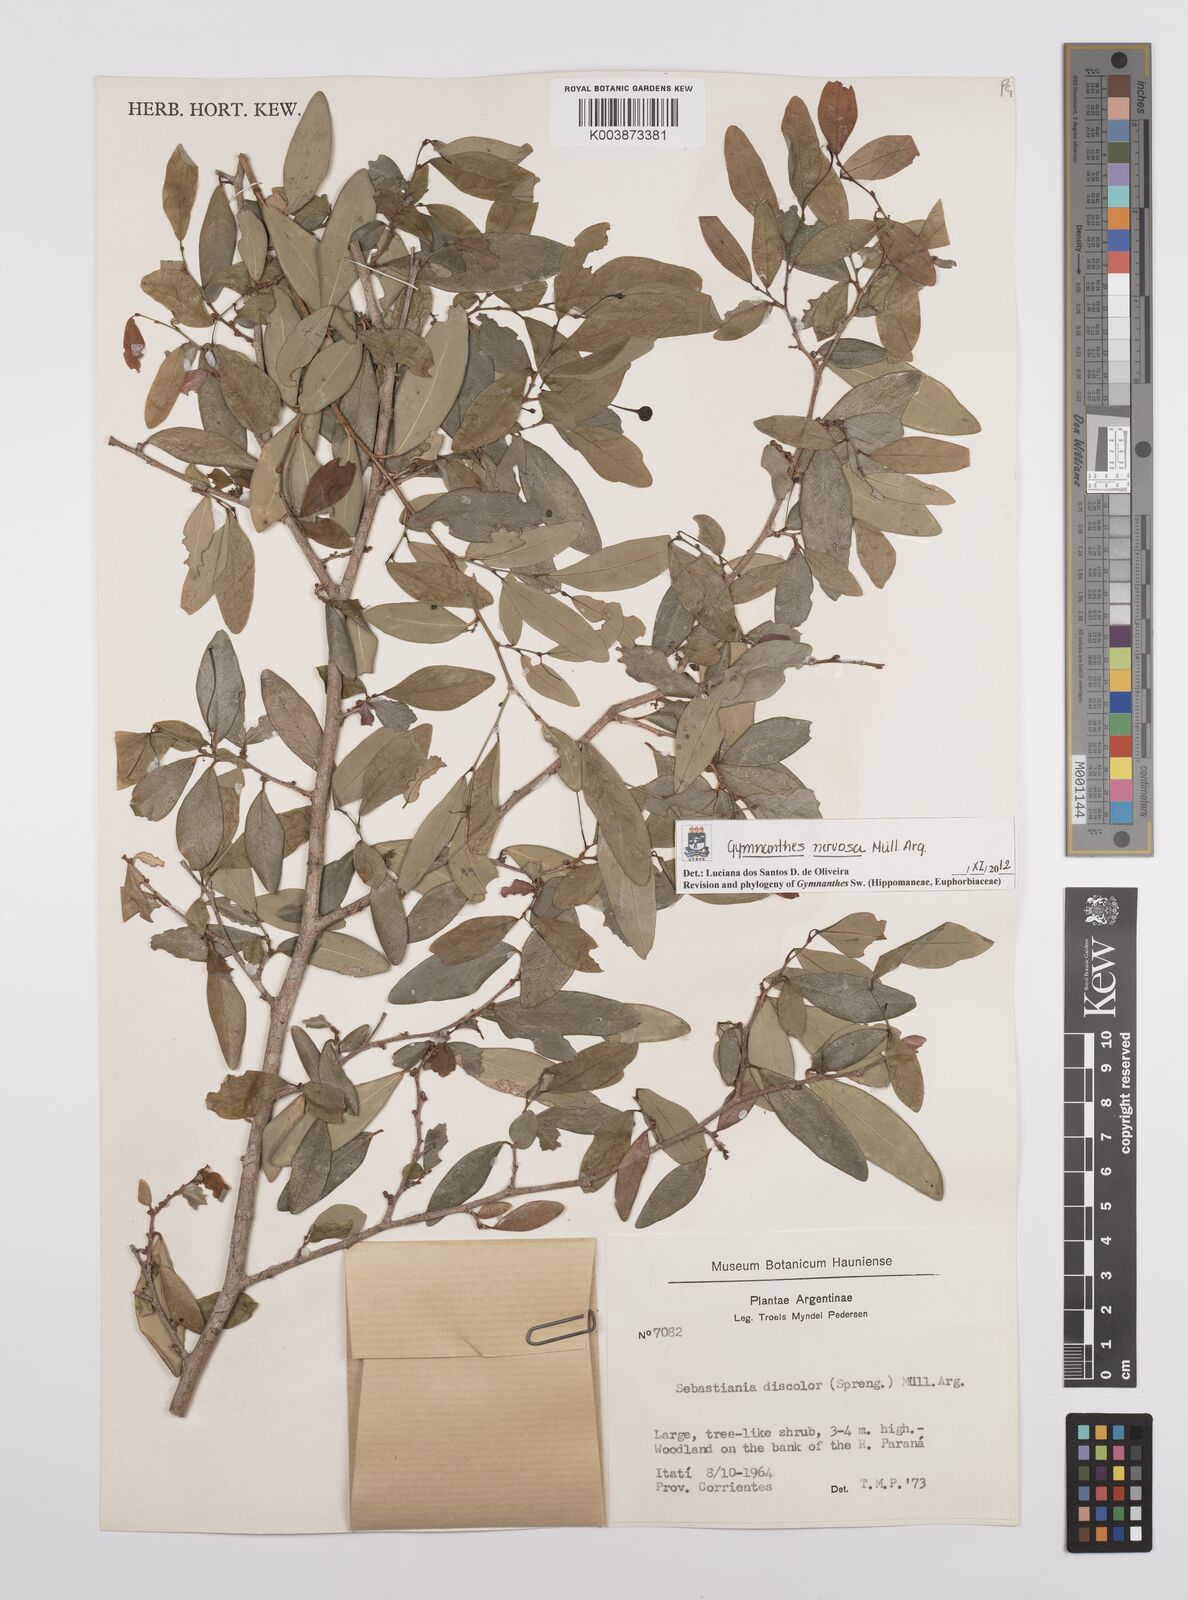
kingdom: Plantae
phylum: Tracheophyta
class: Magnoliopsida
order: Malpighiales
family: Euphorbiaceae
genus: Gymnanthes
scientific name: Gymnanthes nervosa
